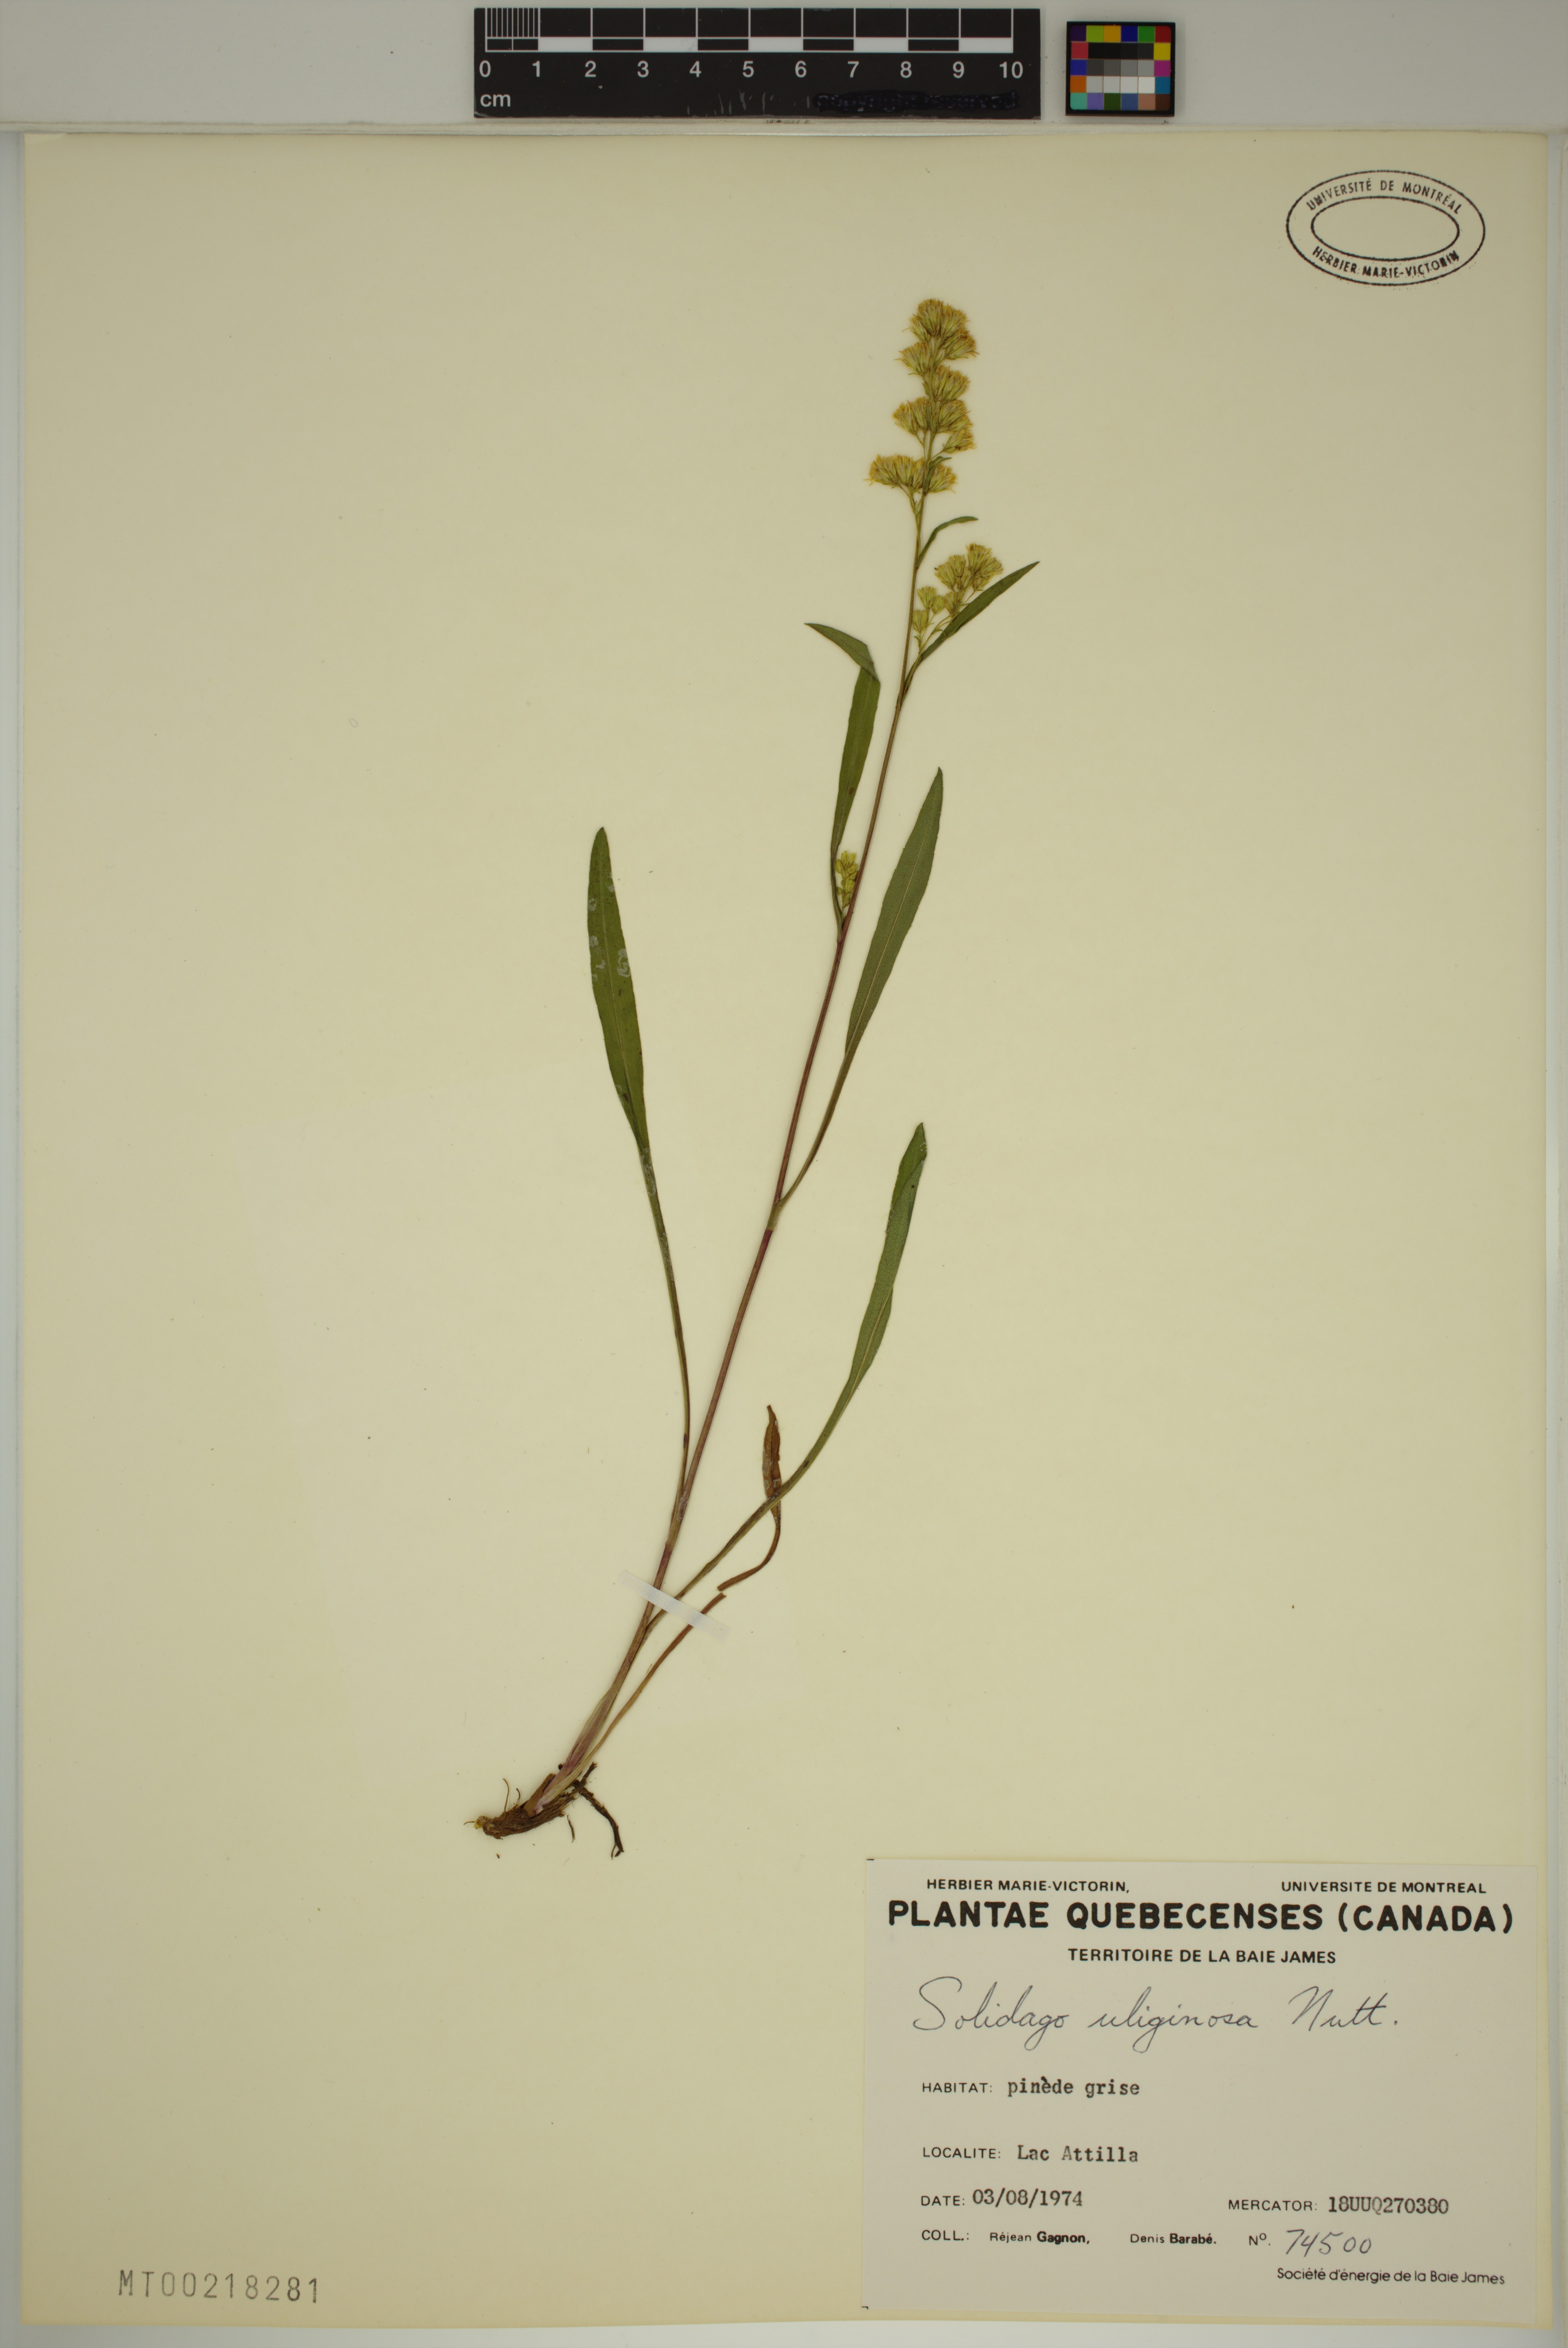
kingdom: Plantae
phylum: Tracheophyta
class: Magnoliopsida
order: Asterales
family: Asteraceae
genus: Solidago
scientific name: Solidago uliginosa
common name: Bog goldenrod
